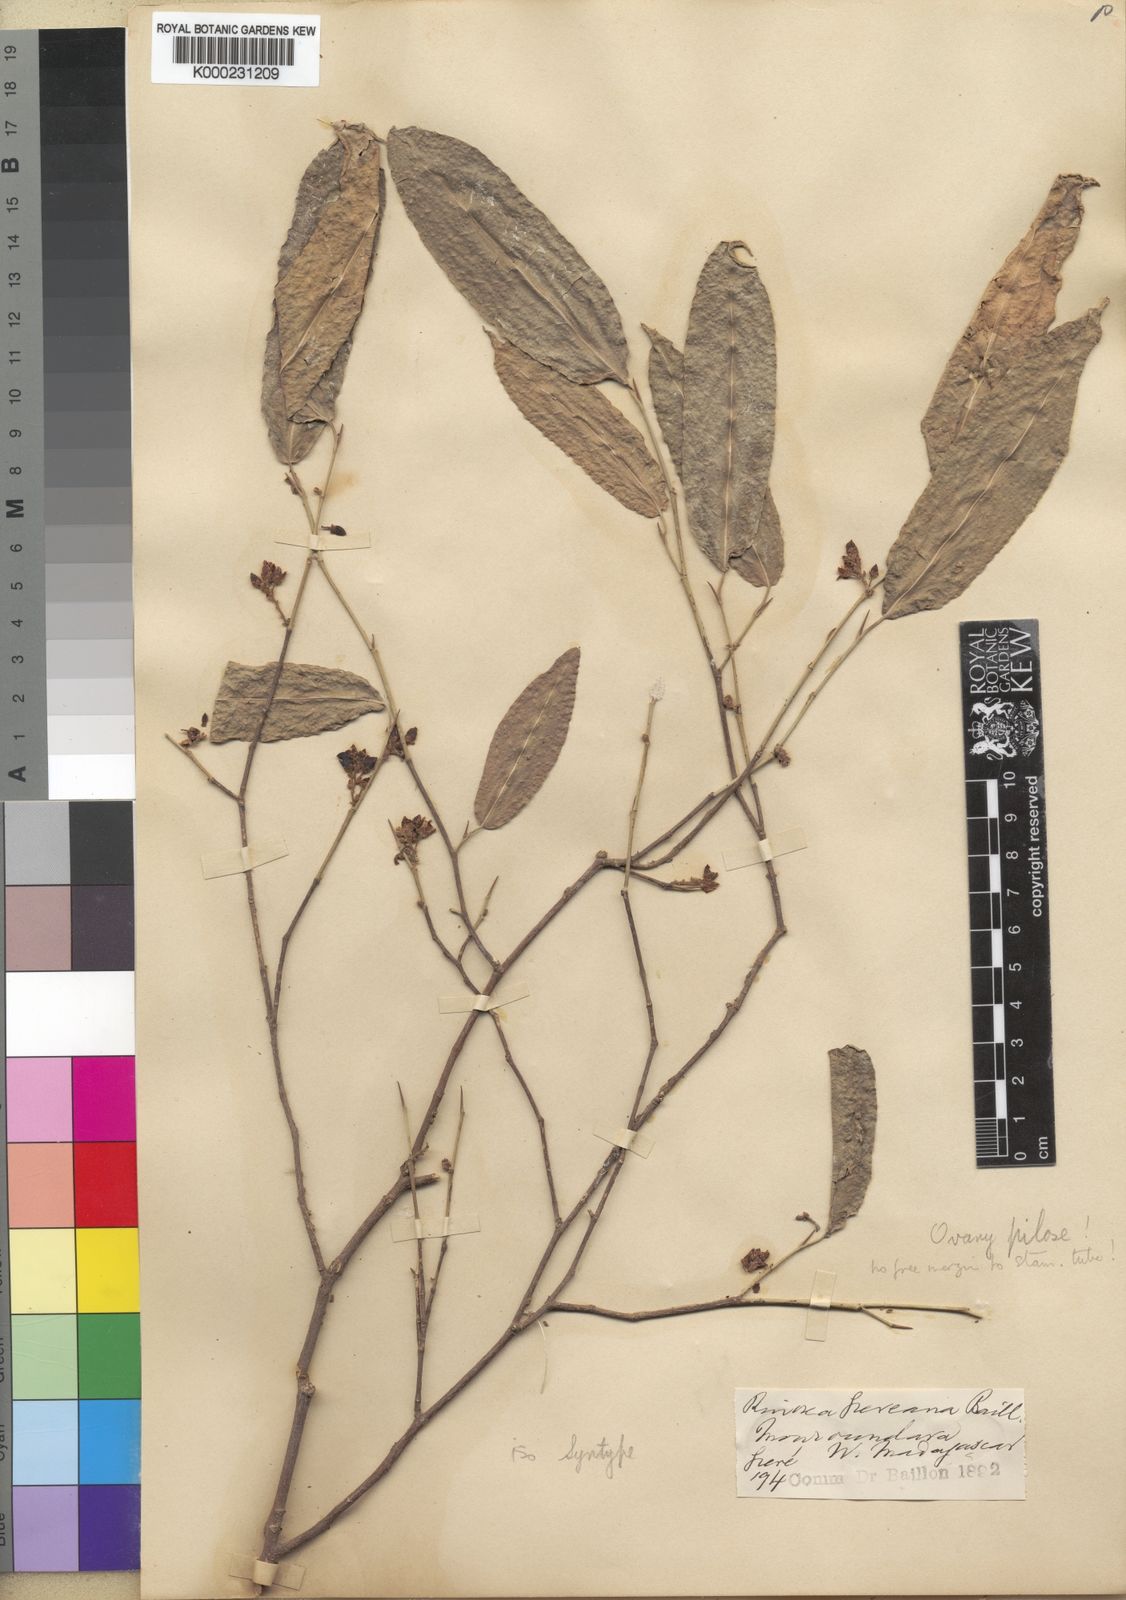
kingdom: Plantae
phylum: Tracheophyta
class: Magnoliopsida
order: Malpighiales
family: Violaceae
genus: Rinorea
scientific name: Rinorea greveana
